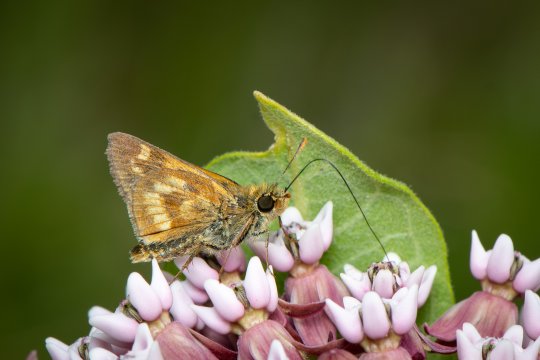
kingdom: Animalia
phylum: Arthropoda
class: Insecta
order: Lepidoptera
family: Hesperiidae
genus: Polites
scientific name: Polites
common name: Long Dash Skipper
